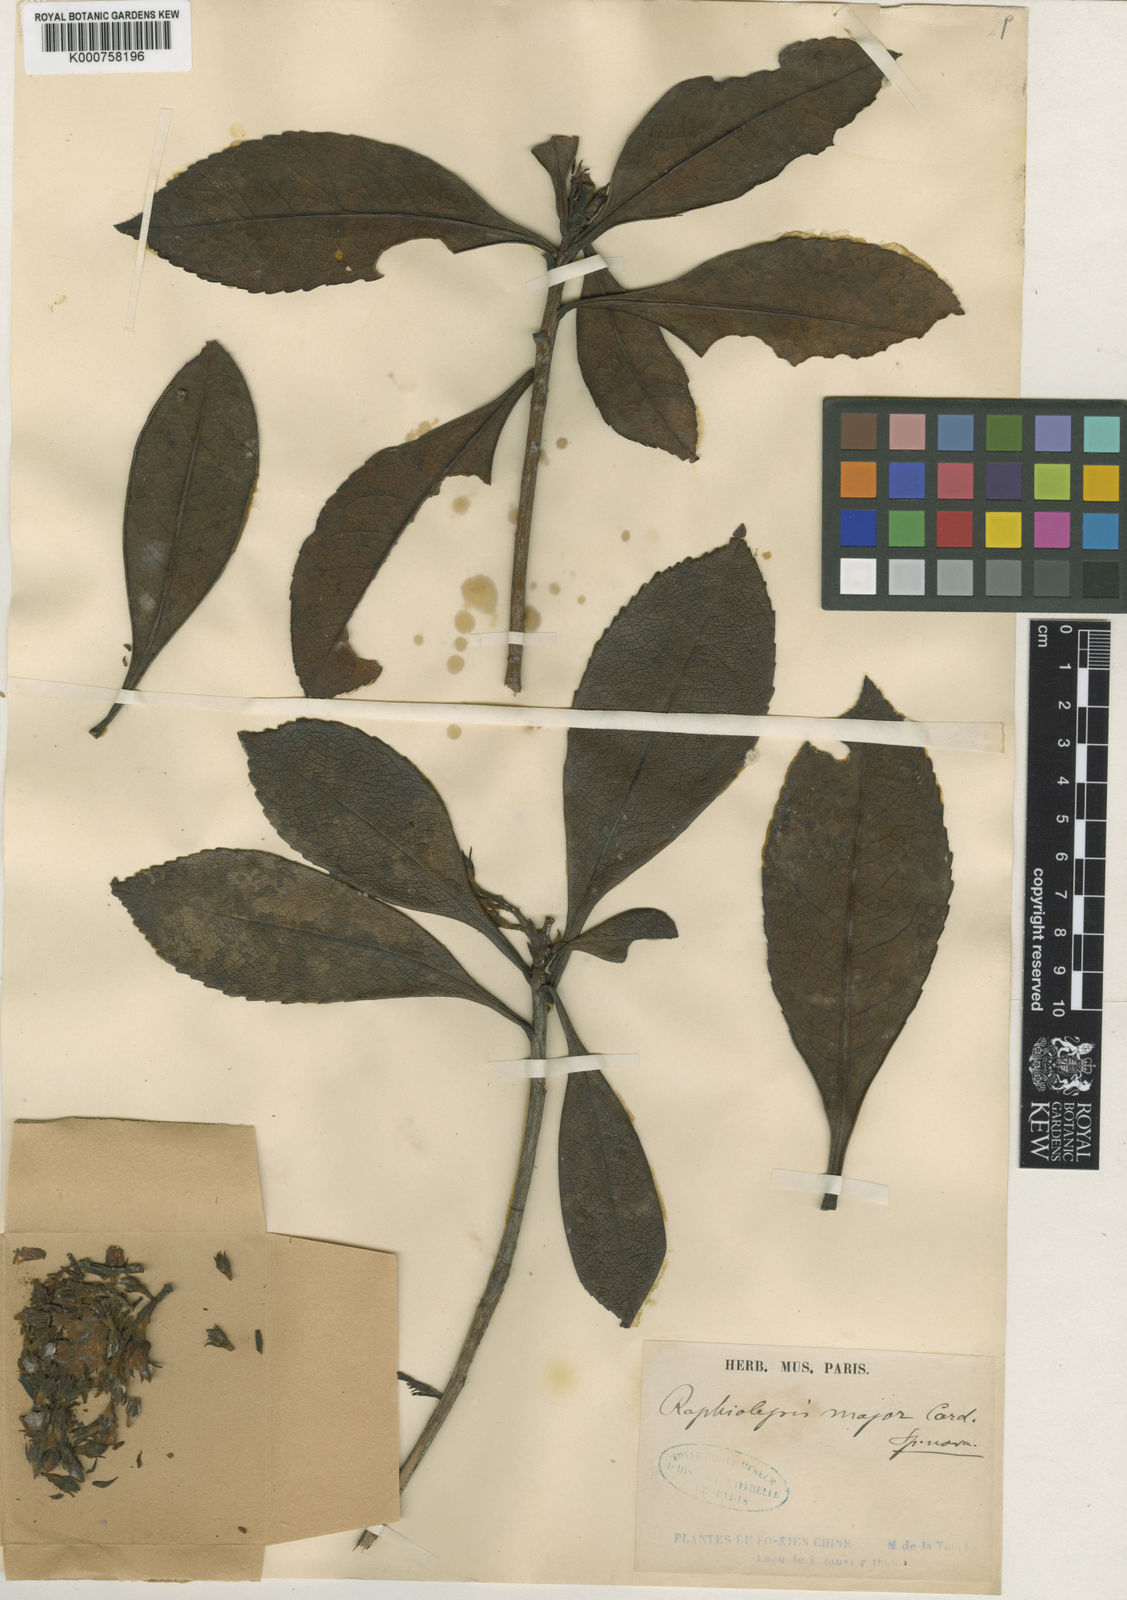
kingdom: Plantae
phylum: Tracheophyta
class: Magnoliopsida
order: Rosales
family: Rosaceae
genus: Rhaphiolepis
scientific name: Rhaphiolepis major
